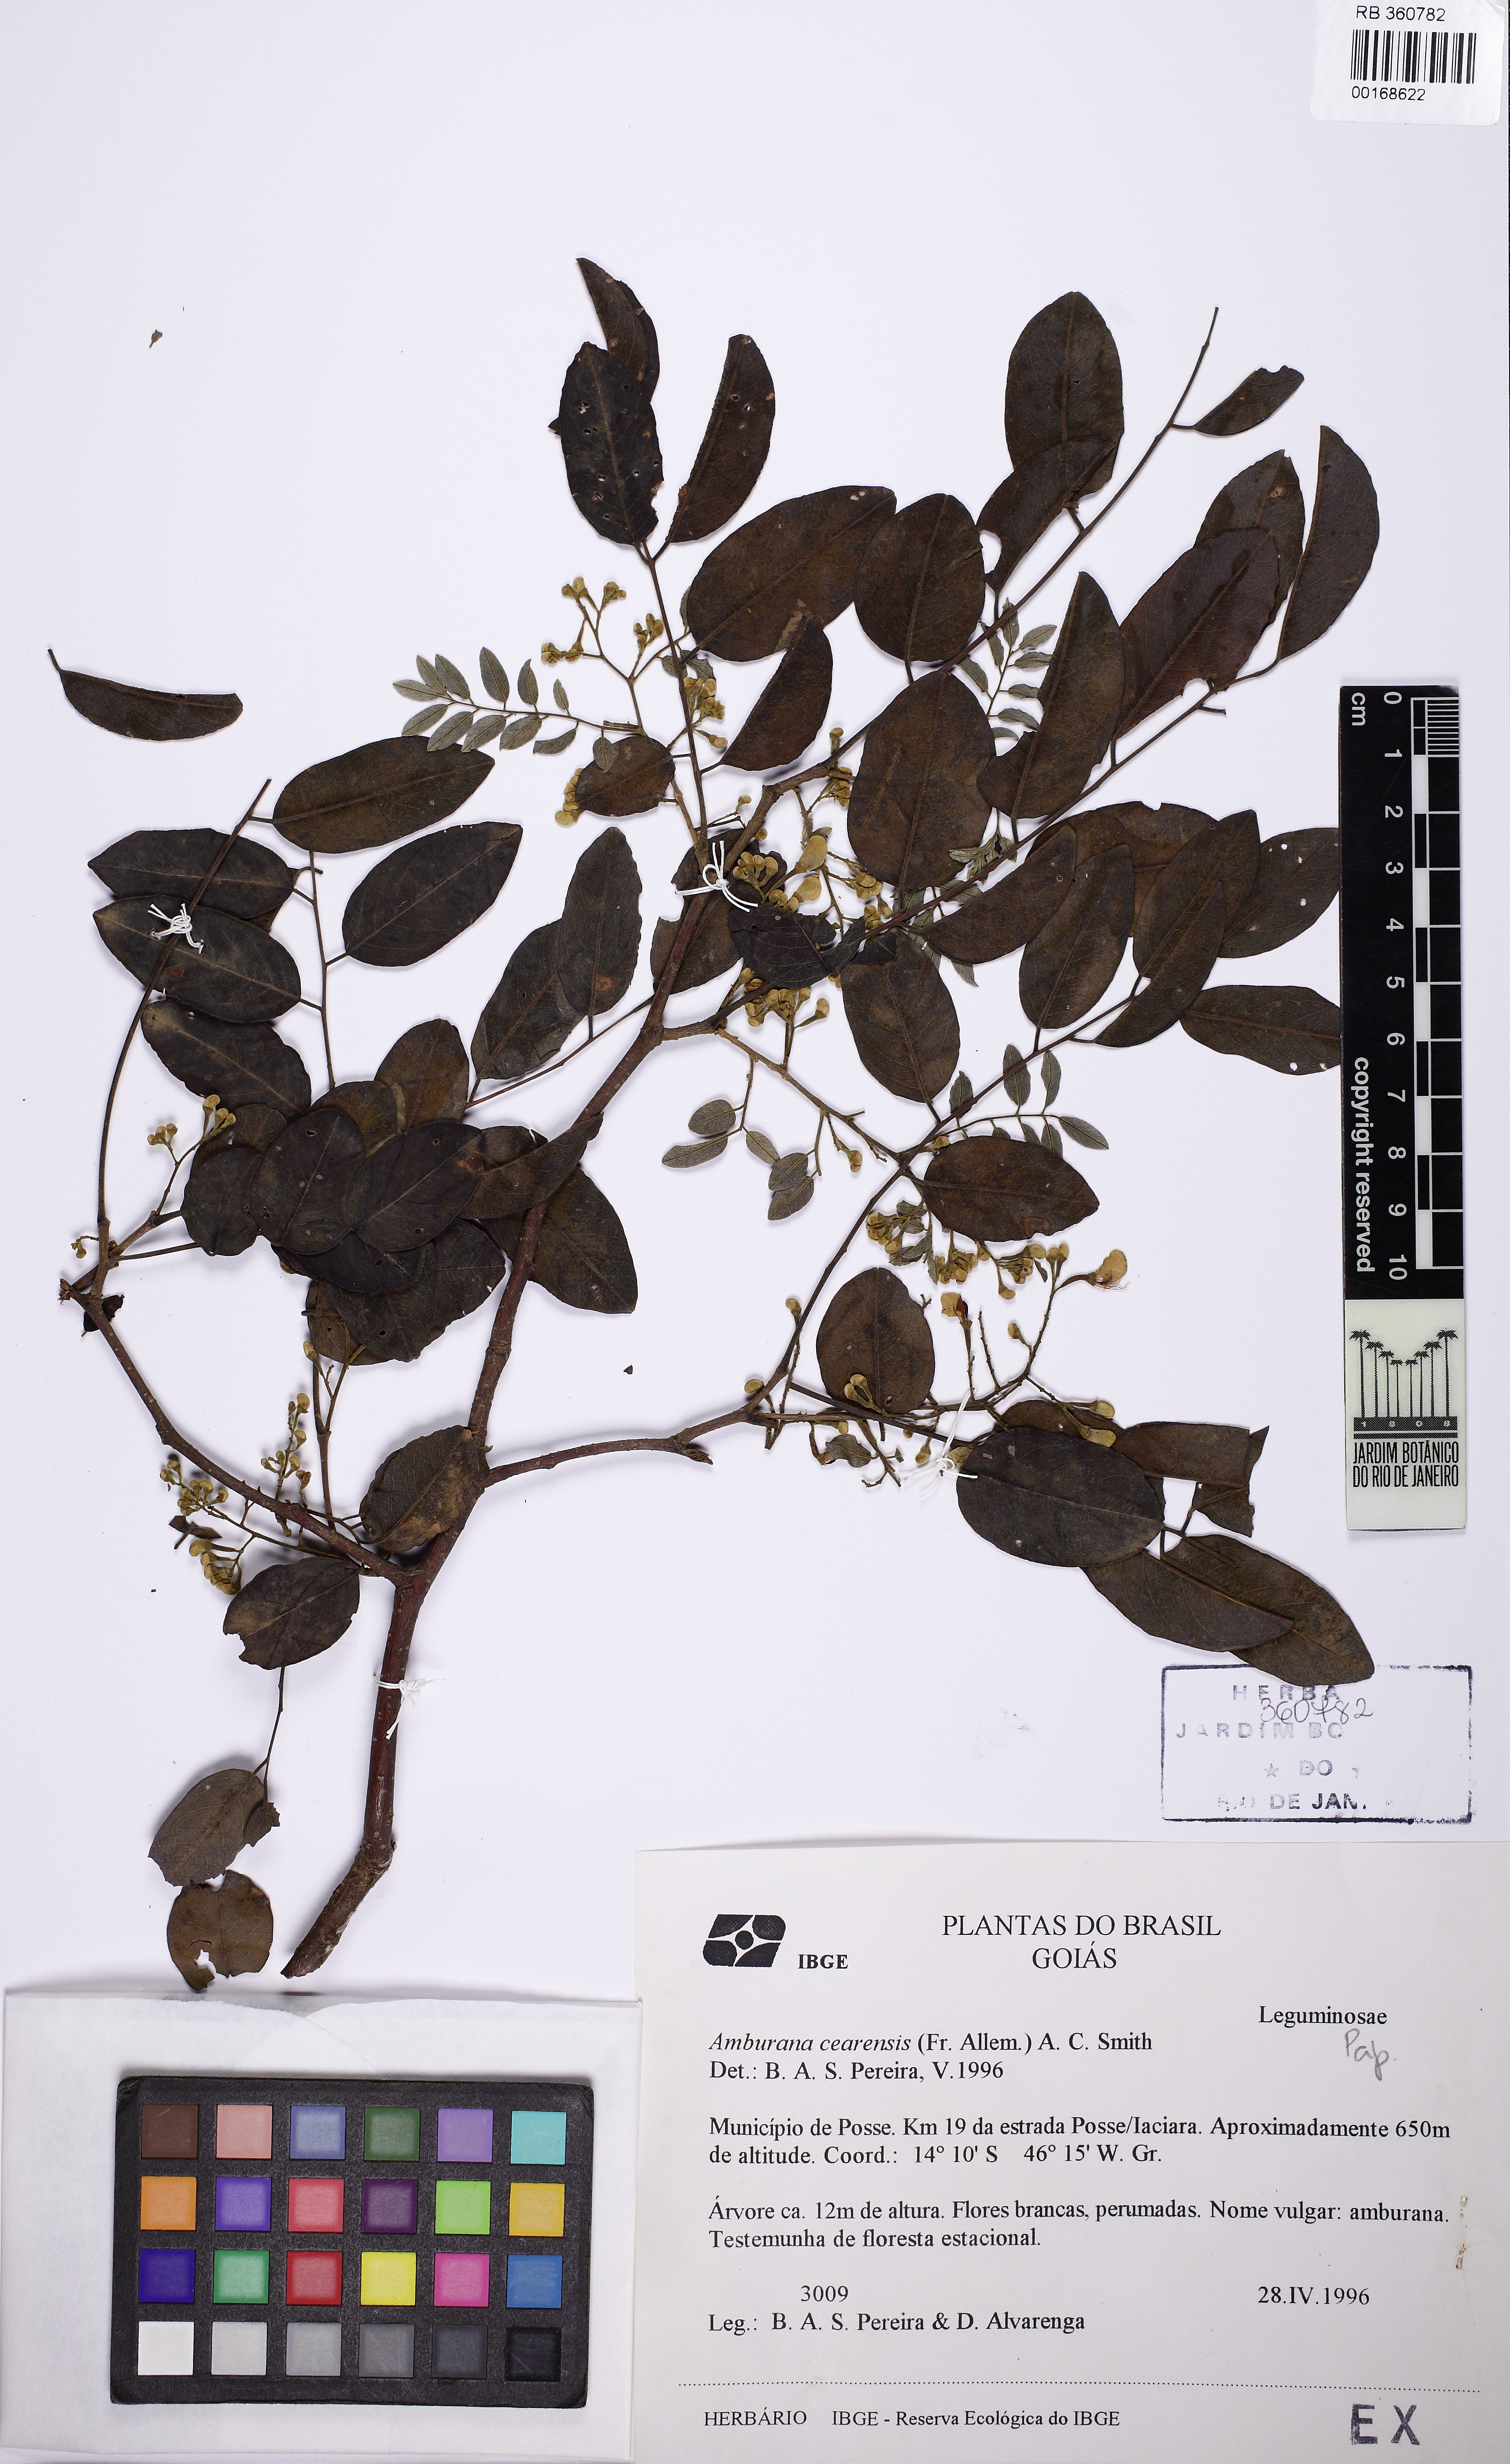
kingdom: Plantae
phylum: Tracheophyta
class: Magnoliopsida
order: Fabales
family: Fabaceae
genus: Amburana
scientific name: Amburana cearensis
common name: Cerejeira
